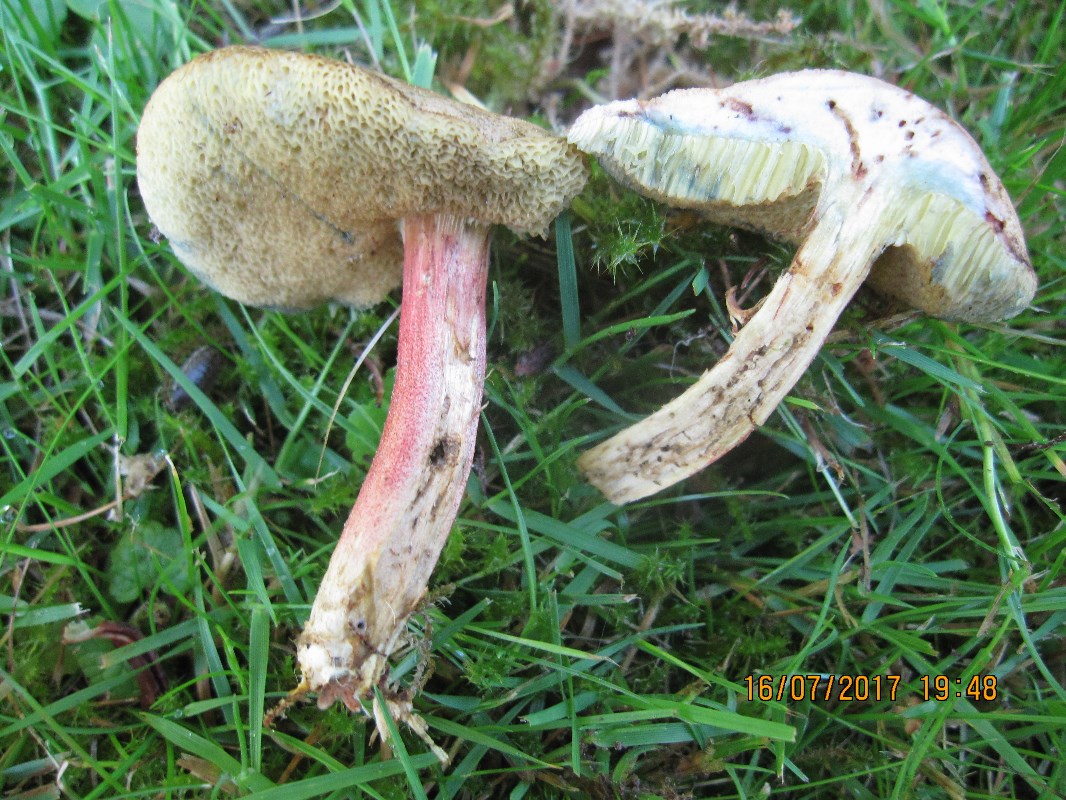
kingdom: Fungi
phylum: Basidiomycota
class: Agaricomycetes
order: Boletales
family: Boletaceae
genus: Hortiboletus
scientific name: Hortiboletus bubalinus
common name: aurora-rørhat
